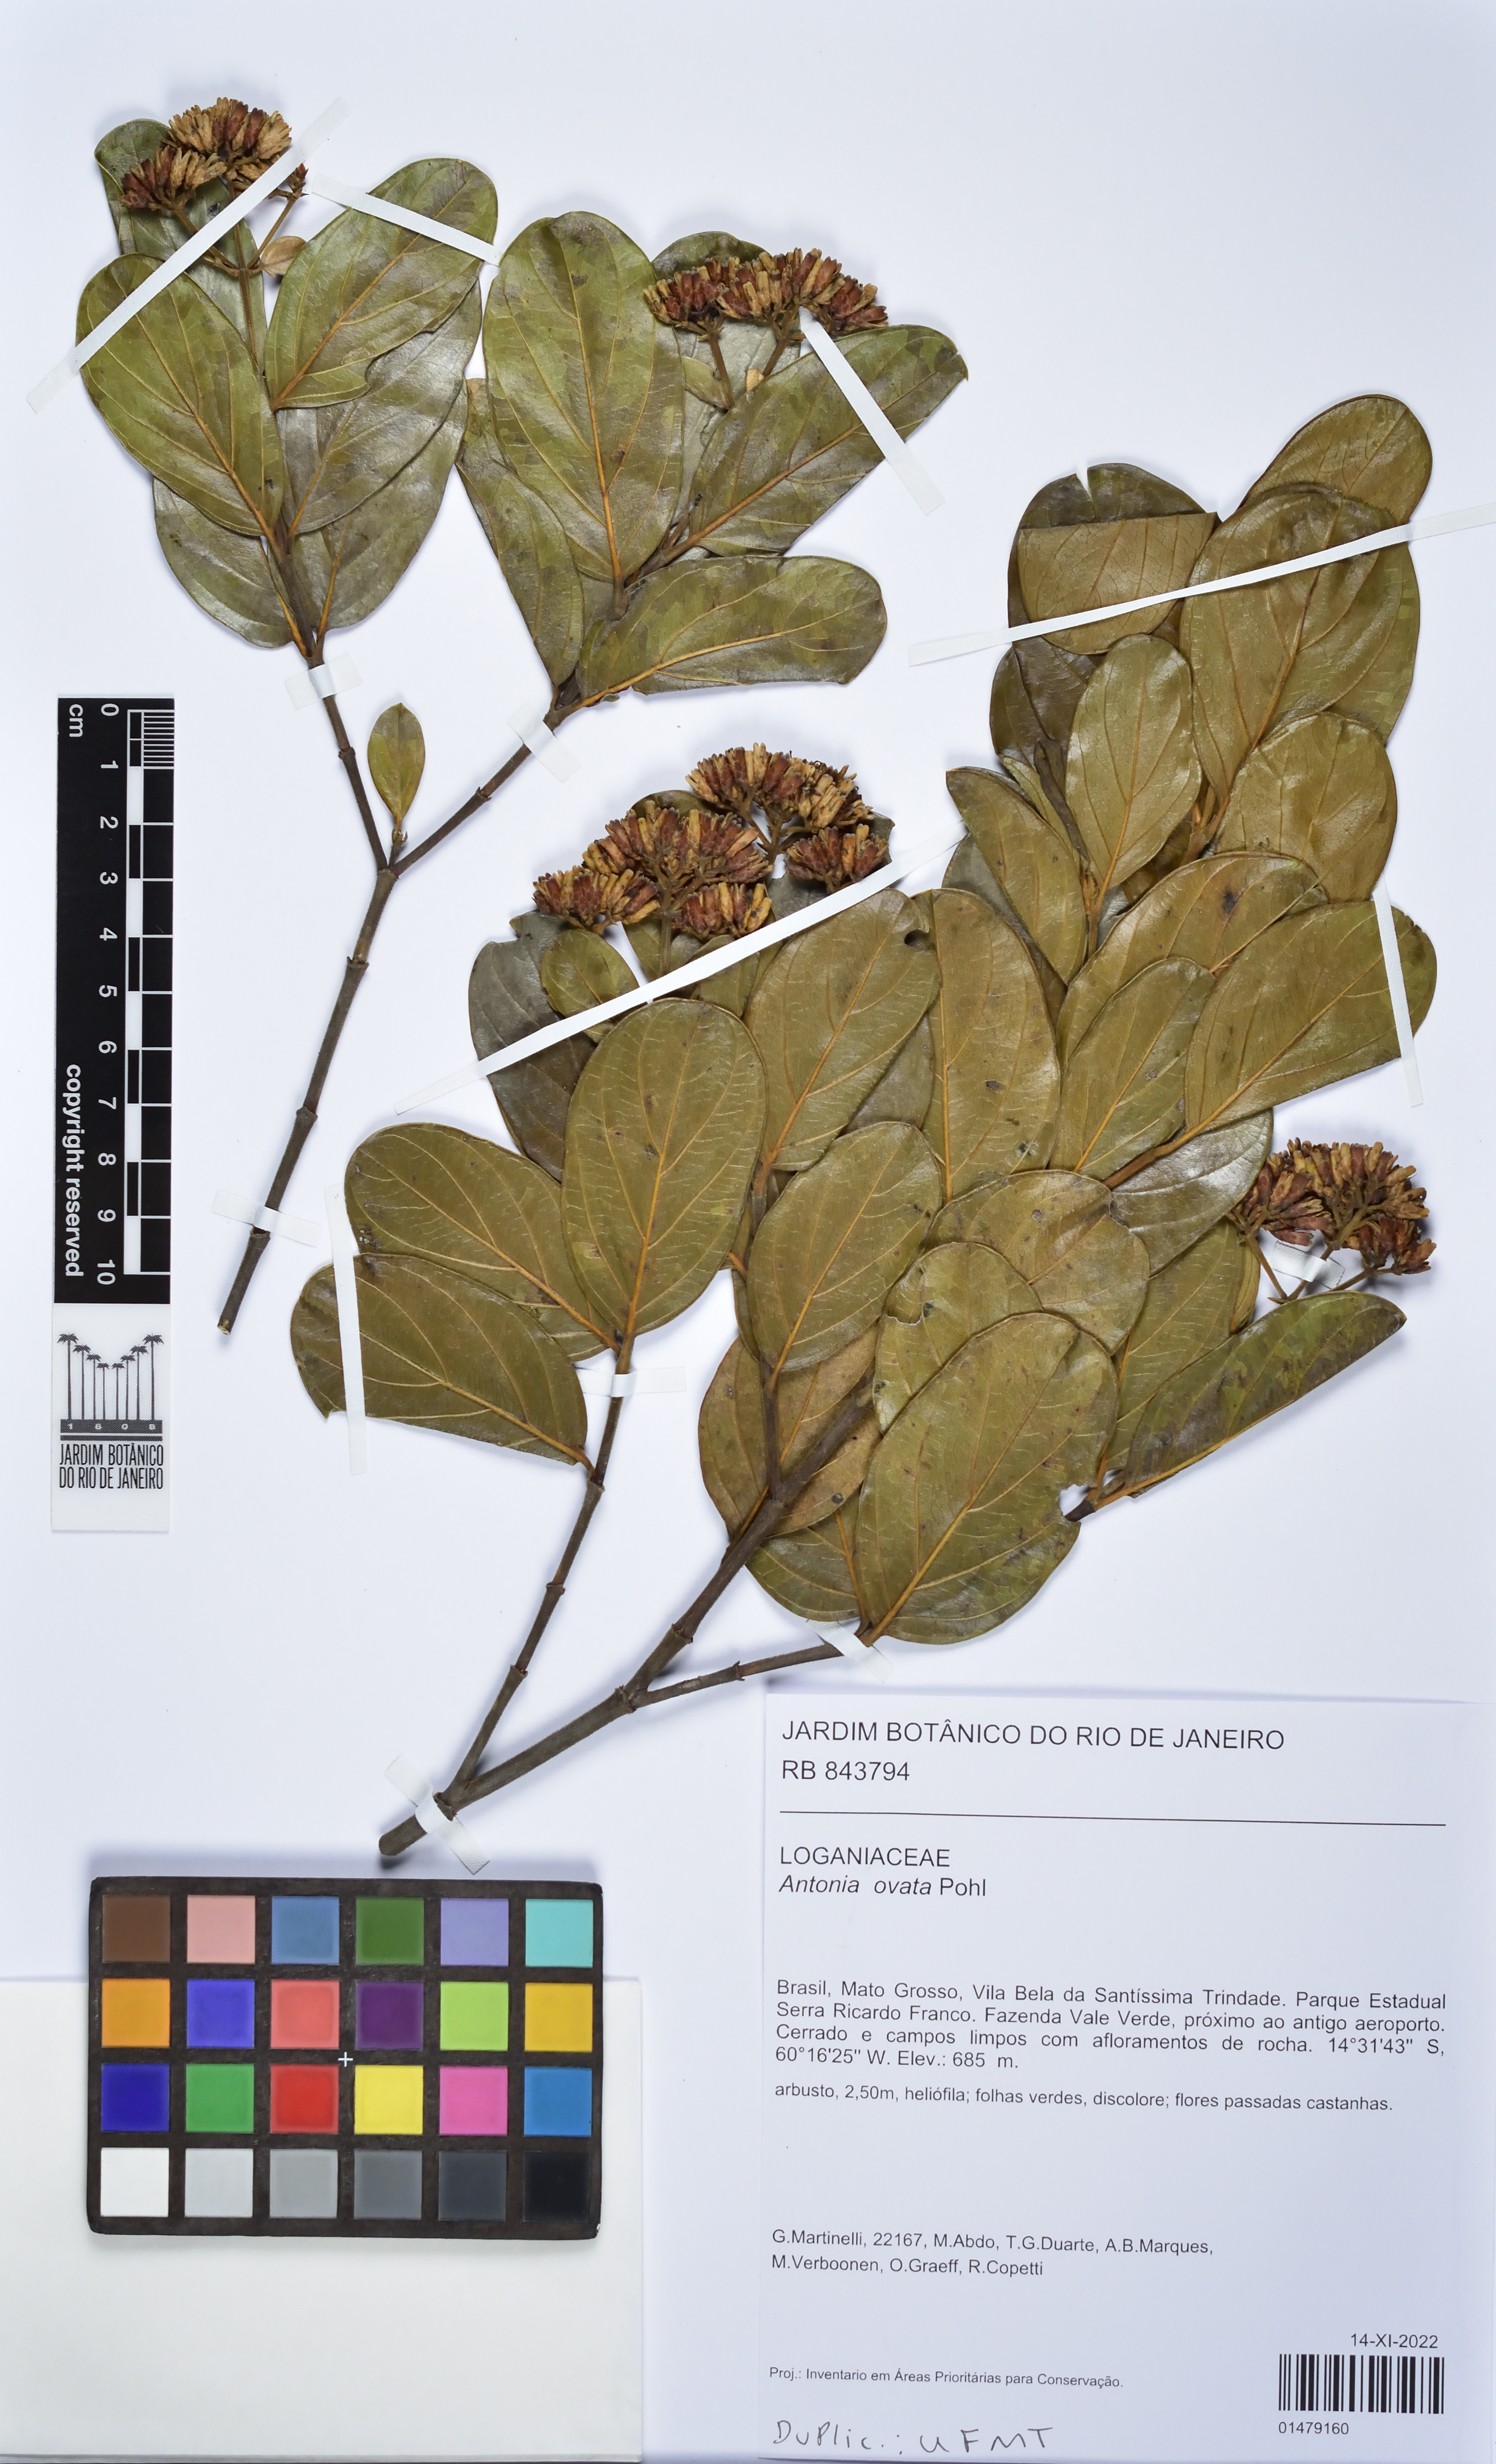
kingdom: Plantae
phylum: Tracheophyta
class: Magnoliopsida
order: Gentianales
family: Loganiaceae
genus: Antonia
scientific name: Antonia ovata
